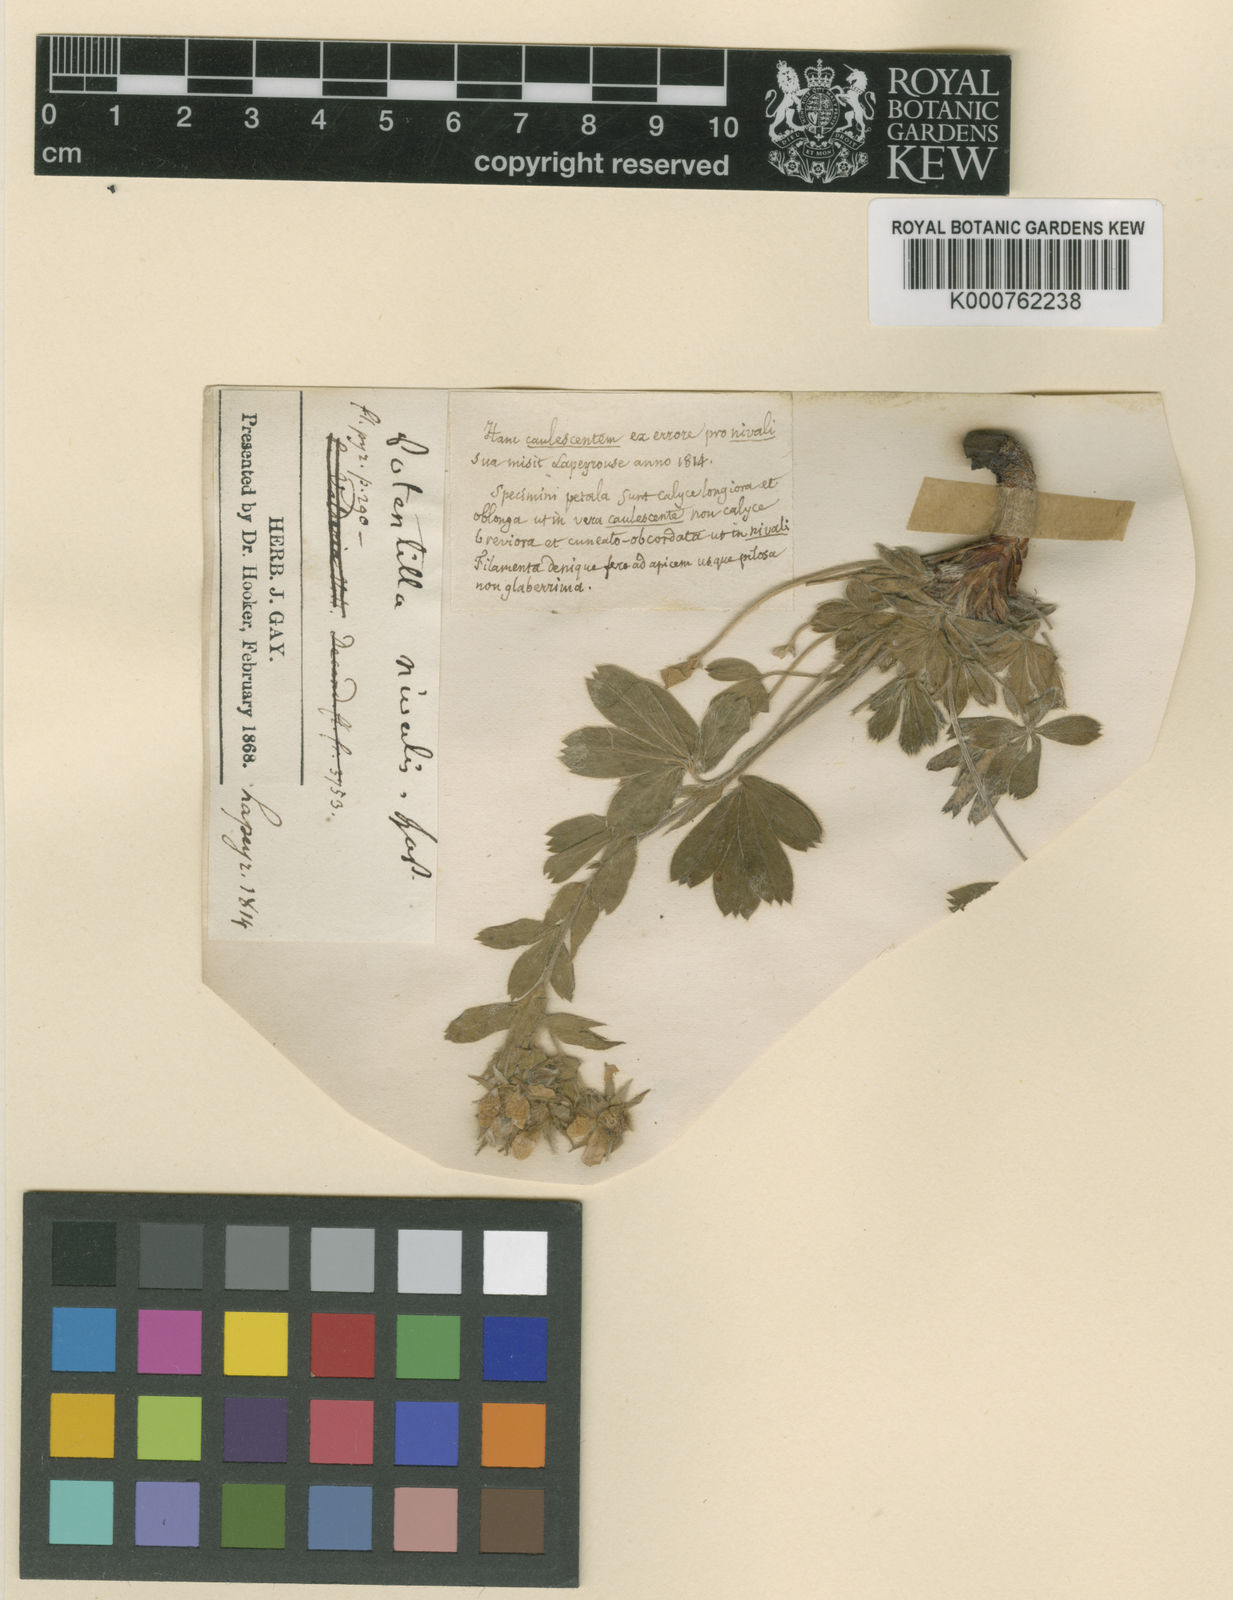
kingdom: Plantae
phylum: Tracheophyta
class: Magnoliopsida
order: Rosales
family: Rosaceae
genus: Potentilla
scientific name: Potentilla nivalis
